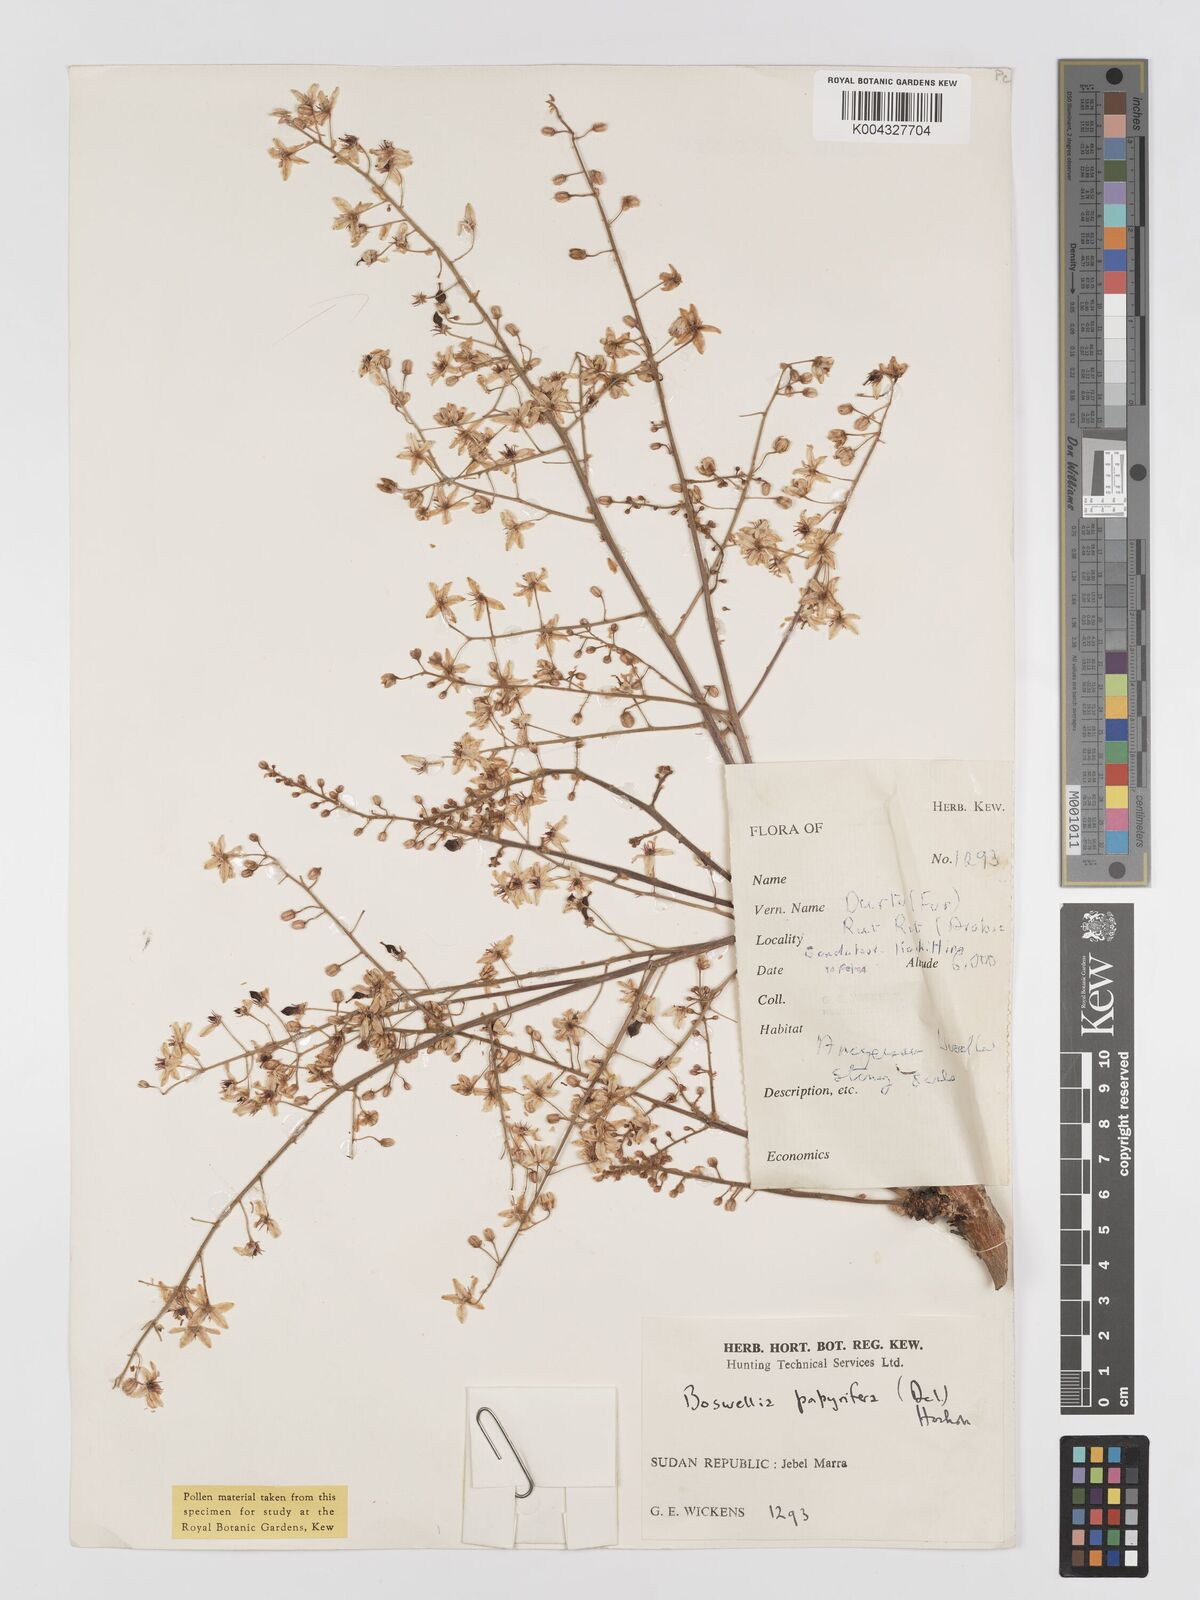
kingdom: Plantae
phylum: Tracheophyta
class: Magnoliopsida
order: Sapindales
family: Burseraceae
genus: Boswellia
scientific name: Boswellia papyrifera
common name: Sudanese frankincense
